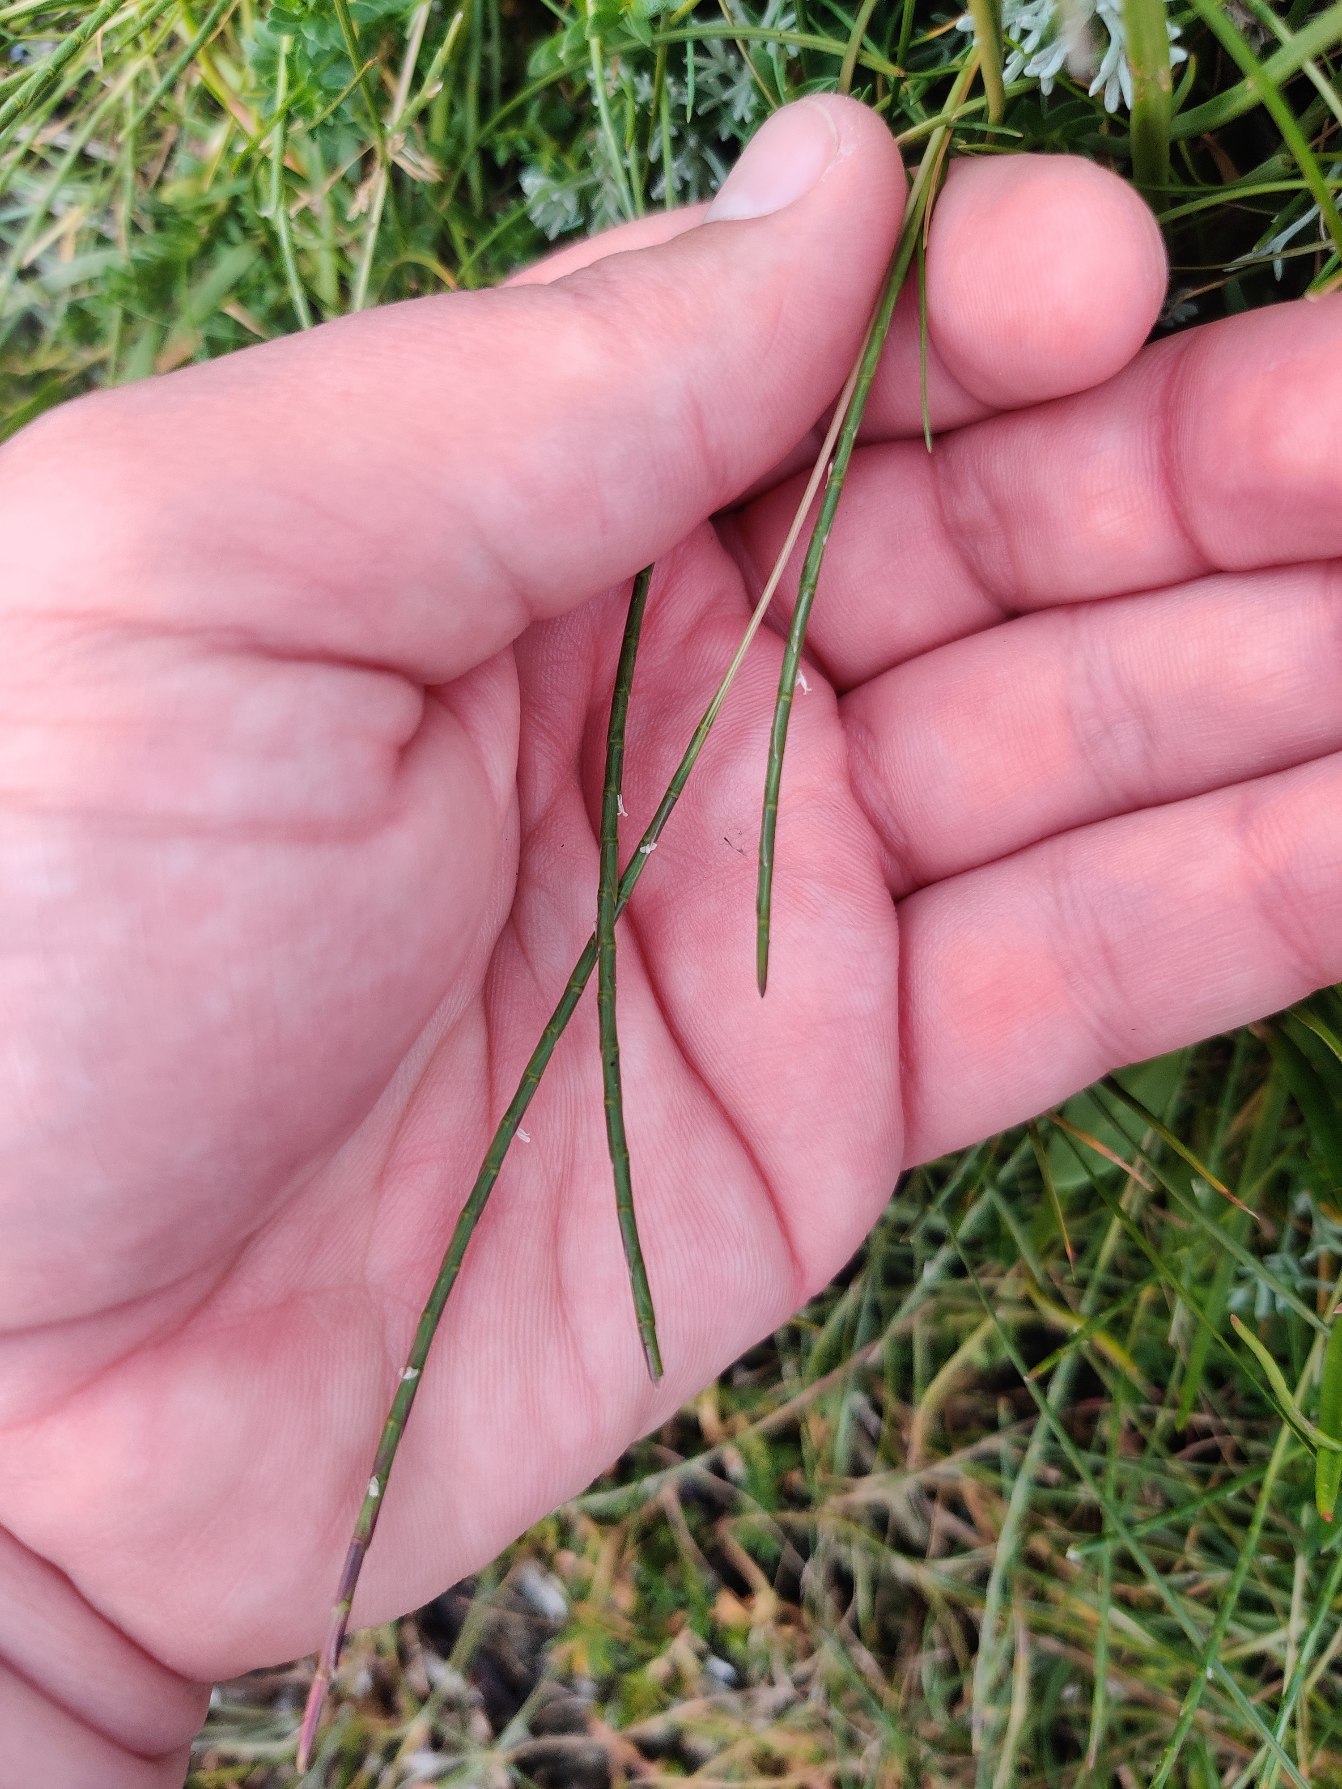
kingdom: Plantae
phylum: Tracheophyta
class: Liliopsida
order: Poales
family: Poaceae
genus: Parapholis
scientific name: Parapholis strigosa
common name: Spidshale
